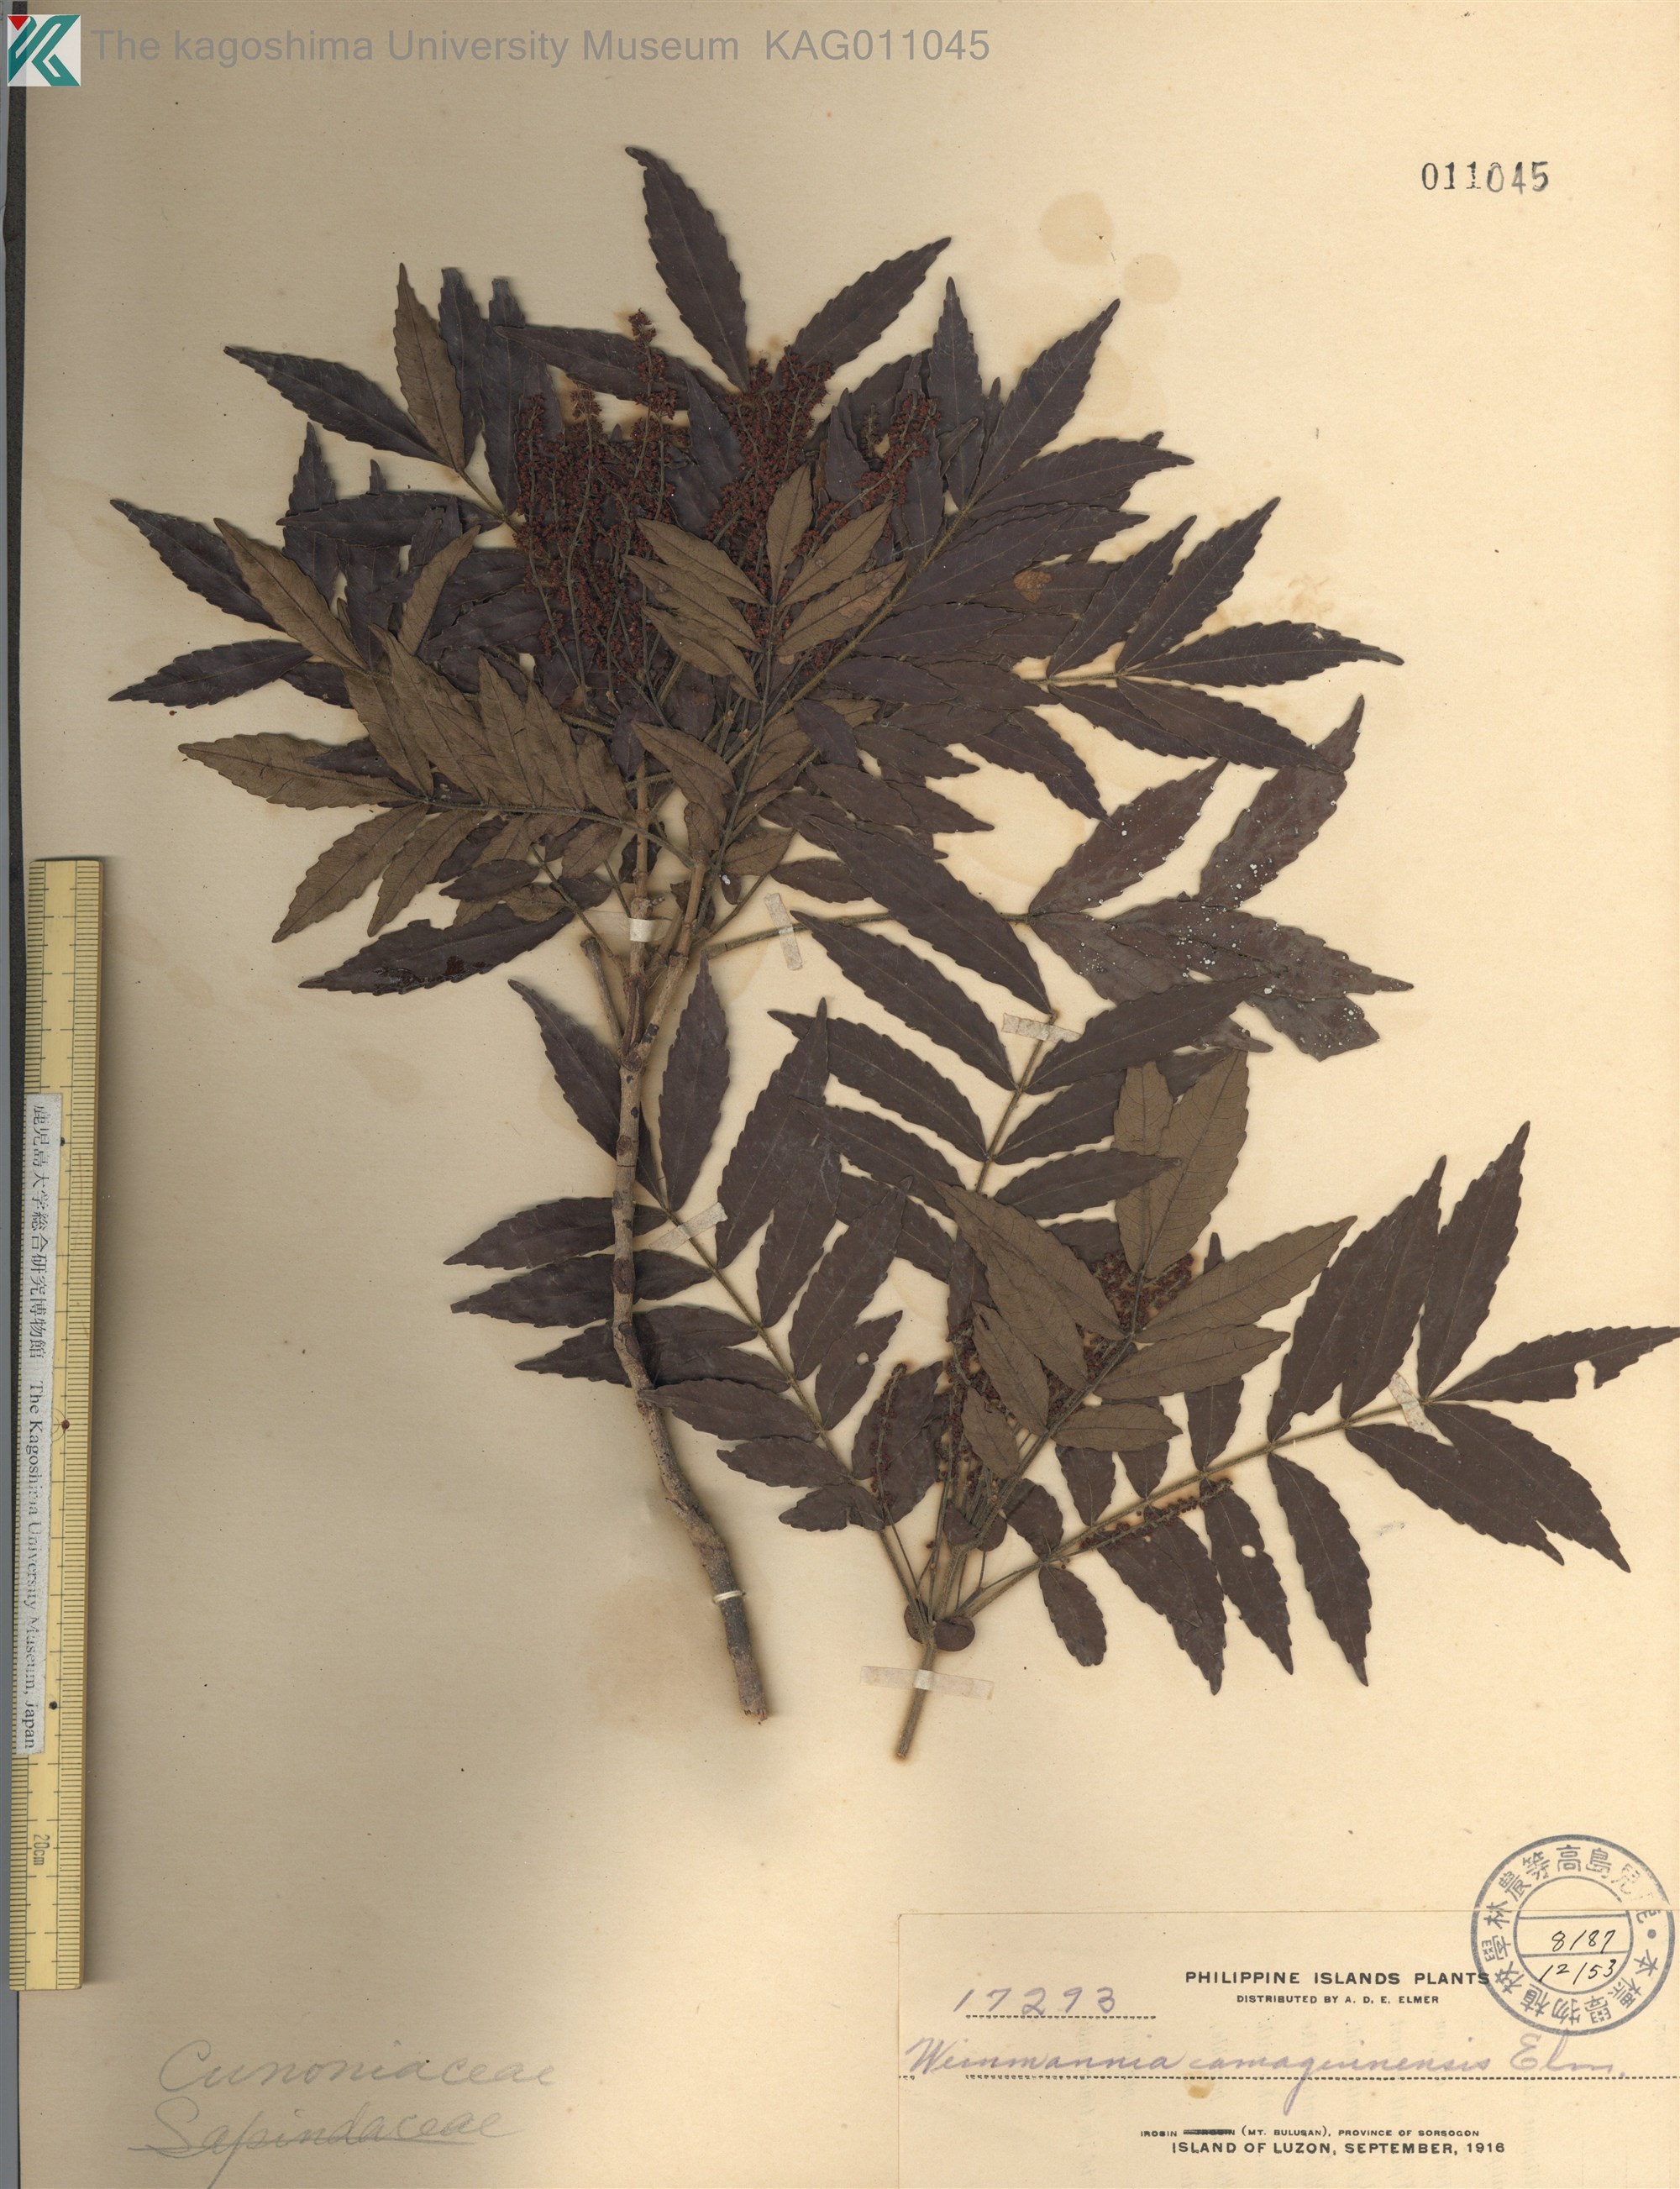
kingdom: Plantae
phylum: Tracheophyta
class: Magnoliopsida
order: Oxalidales
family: Cunoniaceae
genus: Pterophylla
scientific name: Pterophylla hutchinsonii
